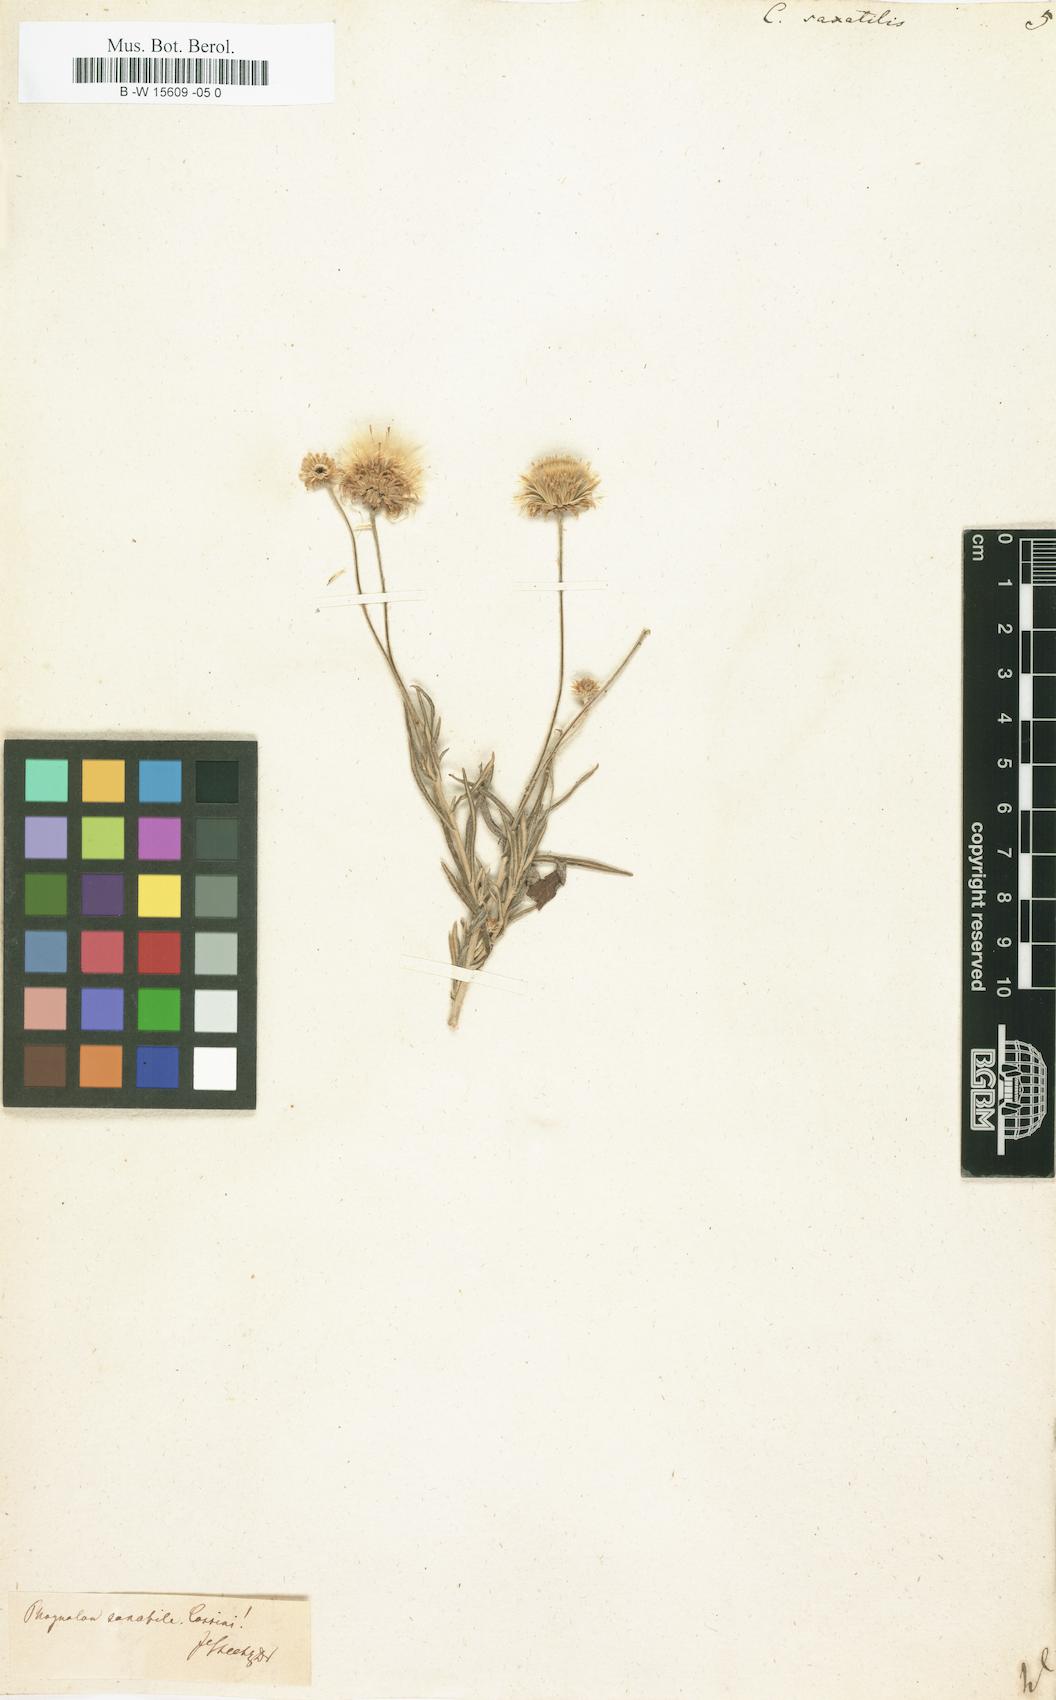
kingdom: Plantae
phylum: Tracheophyta
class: Magnoliopsida
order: Asterales
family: Asteraceae
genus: Phagnalon
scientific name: Phagnalon saxatile
